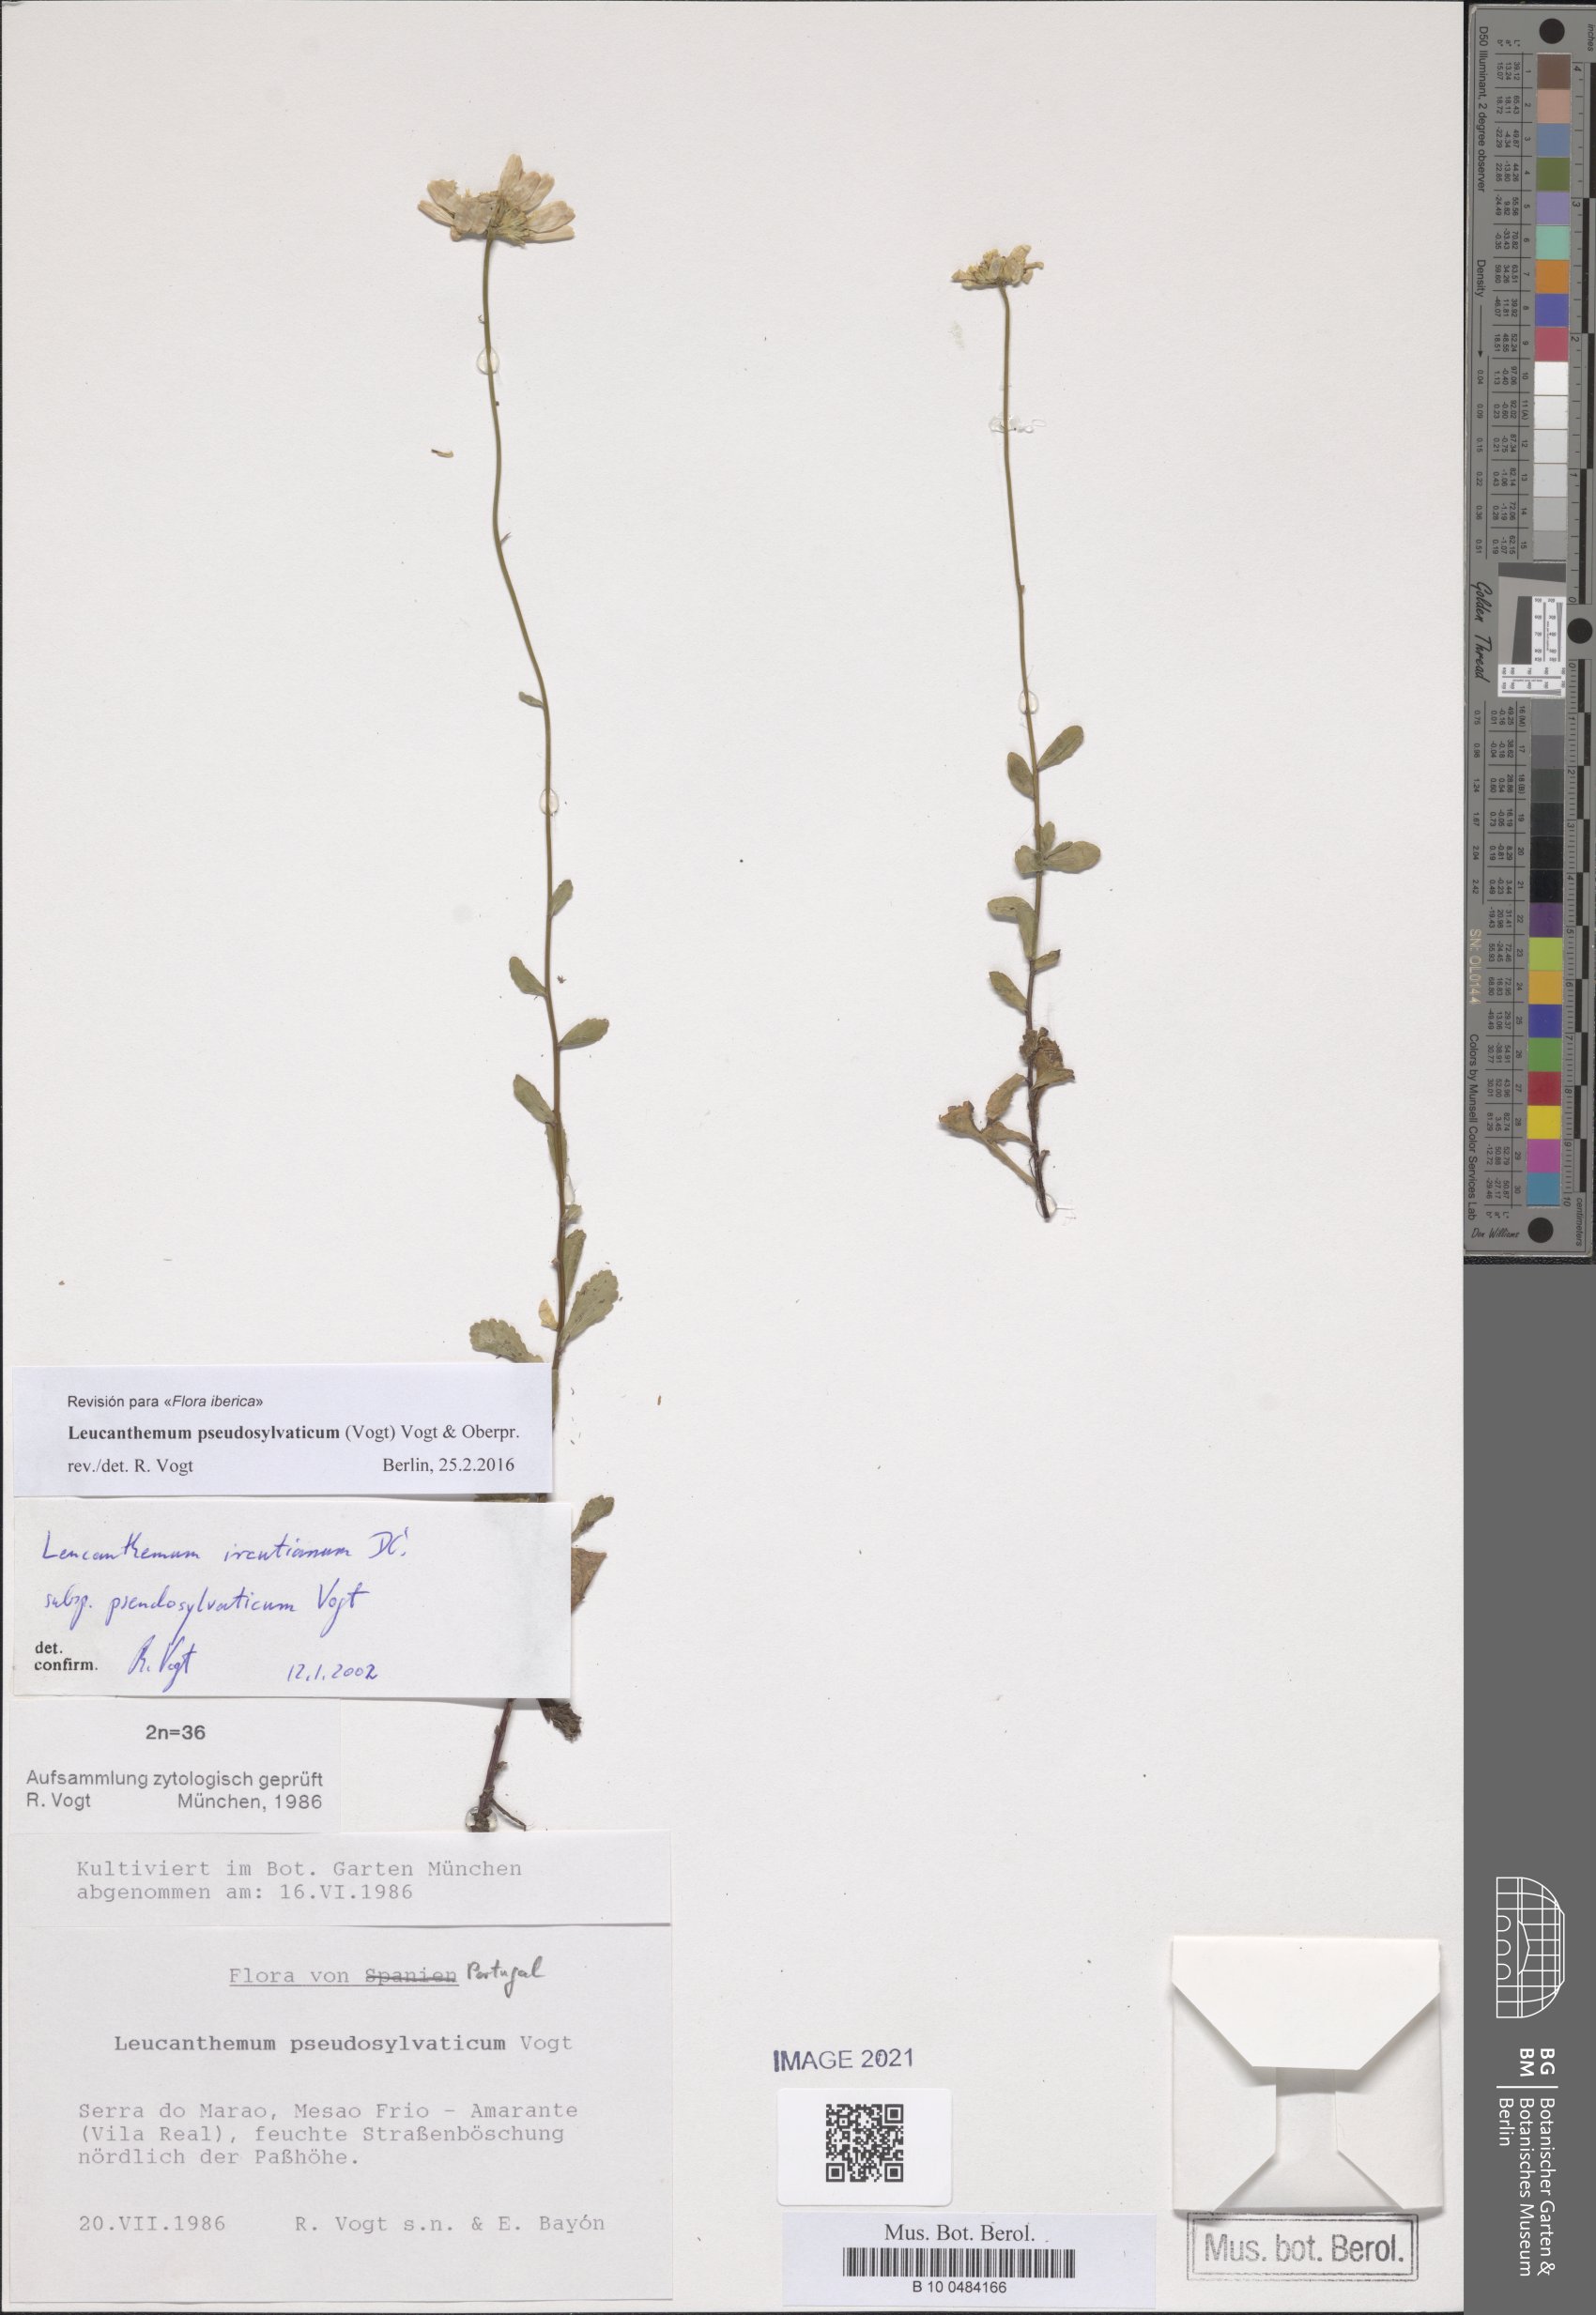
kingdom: Plantae
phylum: Tracheophyta
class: Magnoliopsida
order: Asterales
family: Asteraceae
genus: Leucanthemum
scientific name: Leucanthemum pseudosylvaticum
